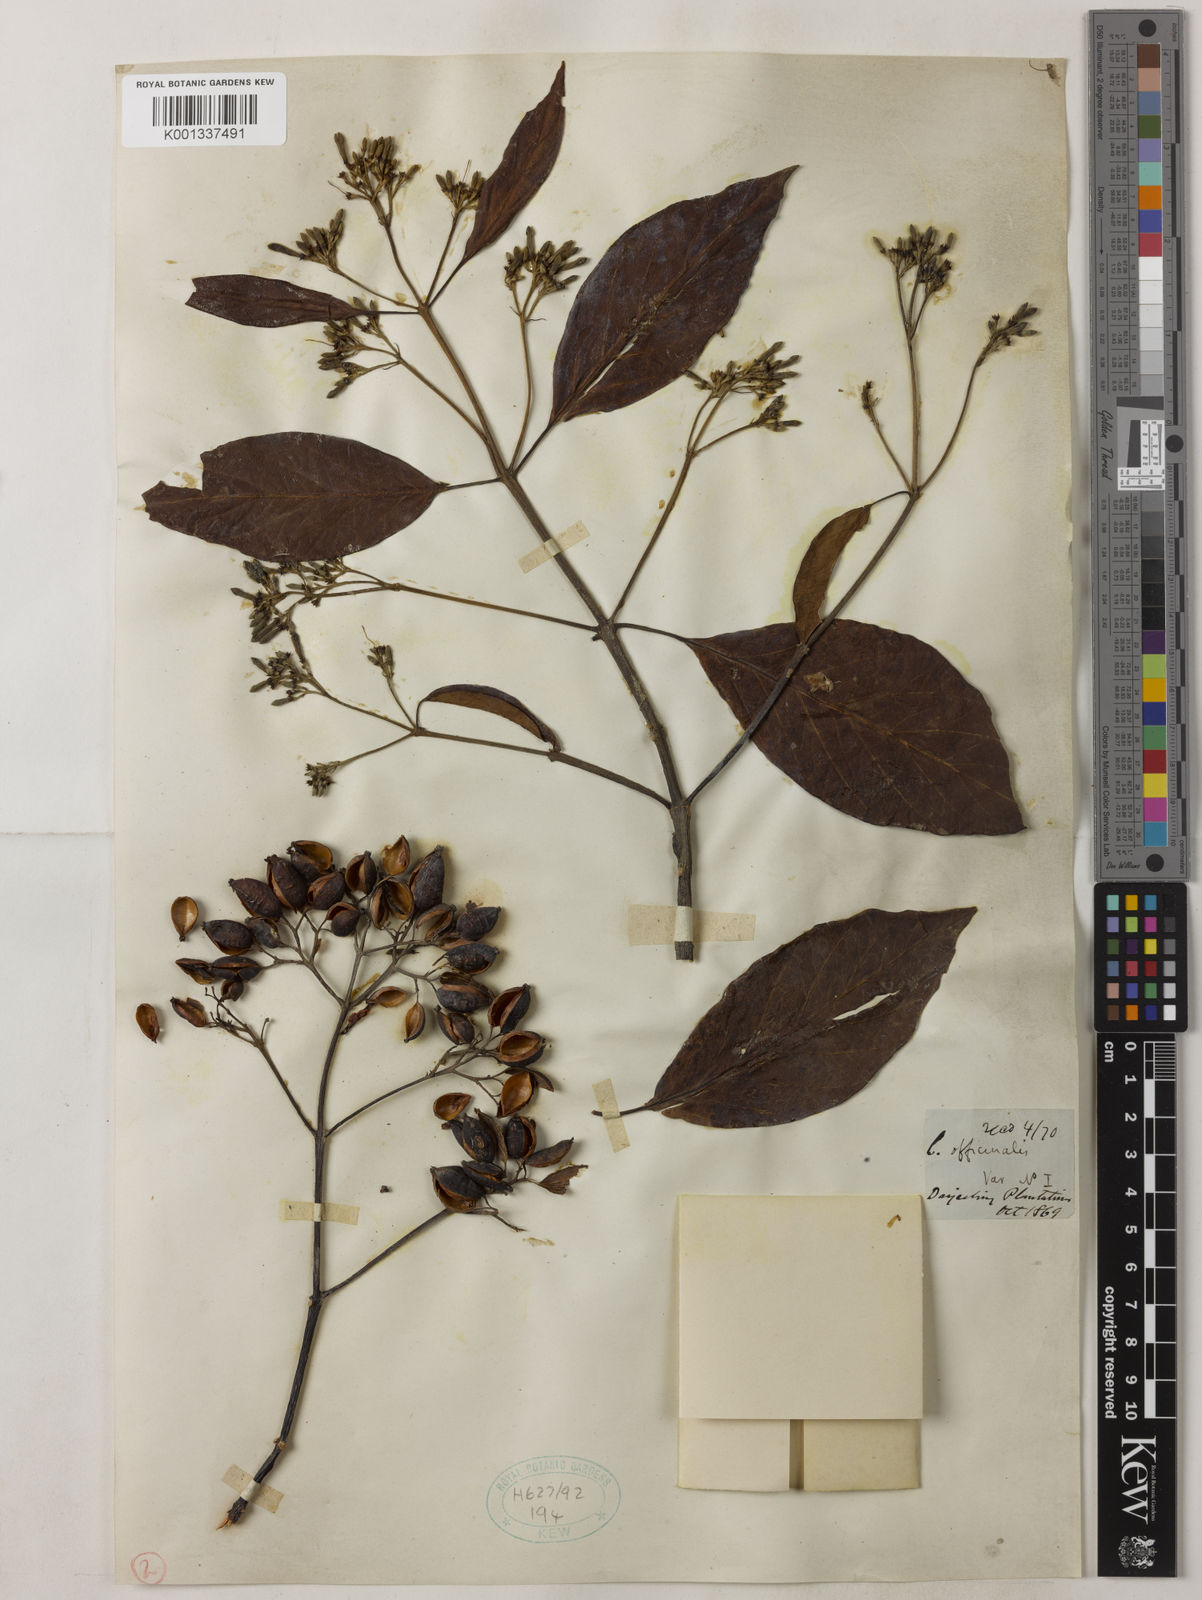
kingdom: Plantae
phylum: Tracheophyta
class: Magnoliopsida
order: Gentianales
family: Rubiaceae
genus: Cinchona
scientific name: Cinchona officinalis
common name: Lojabark
